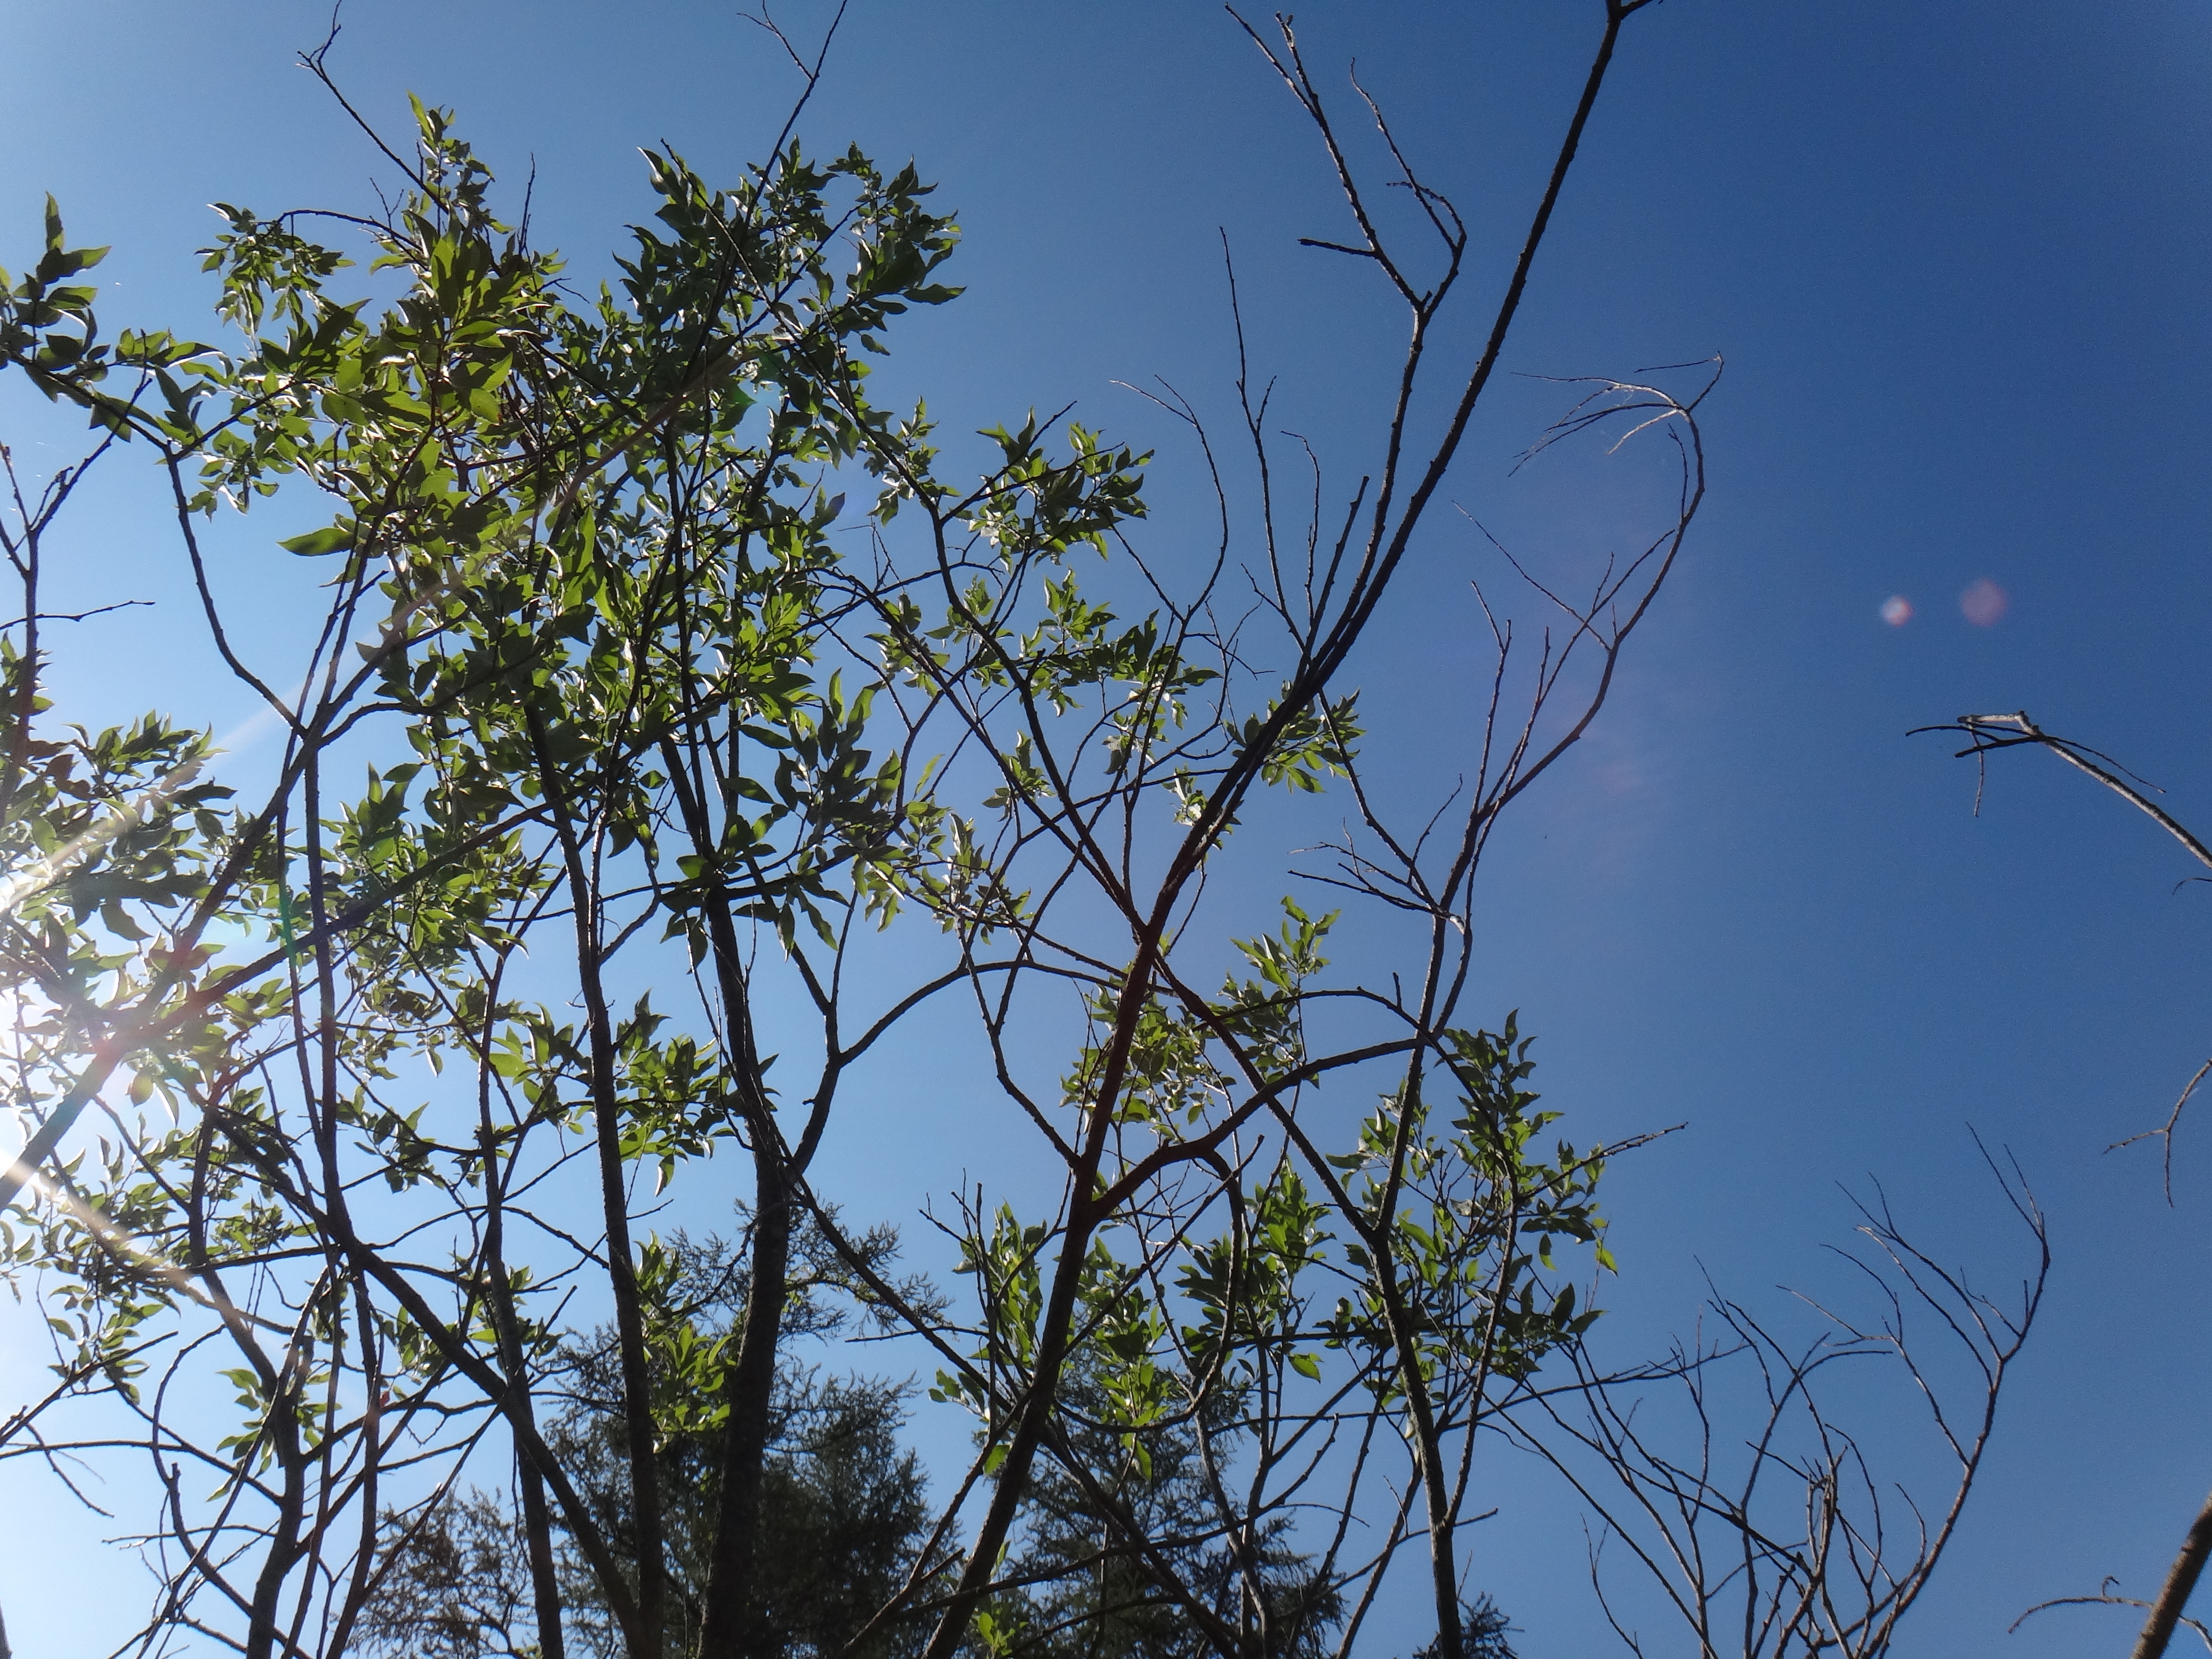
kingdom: Plantae
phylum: Tracheophyta
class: Magnoliopsida
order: Asterales
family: Asteraceae
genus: Solidago
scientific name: Solidago ohioensis
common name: Ohio goldenrod
